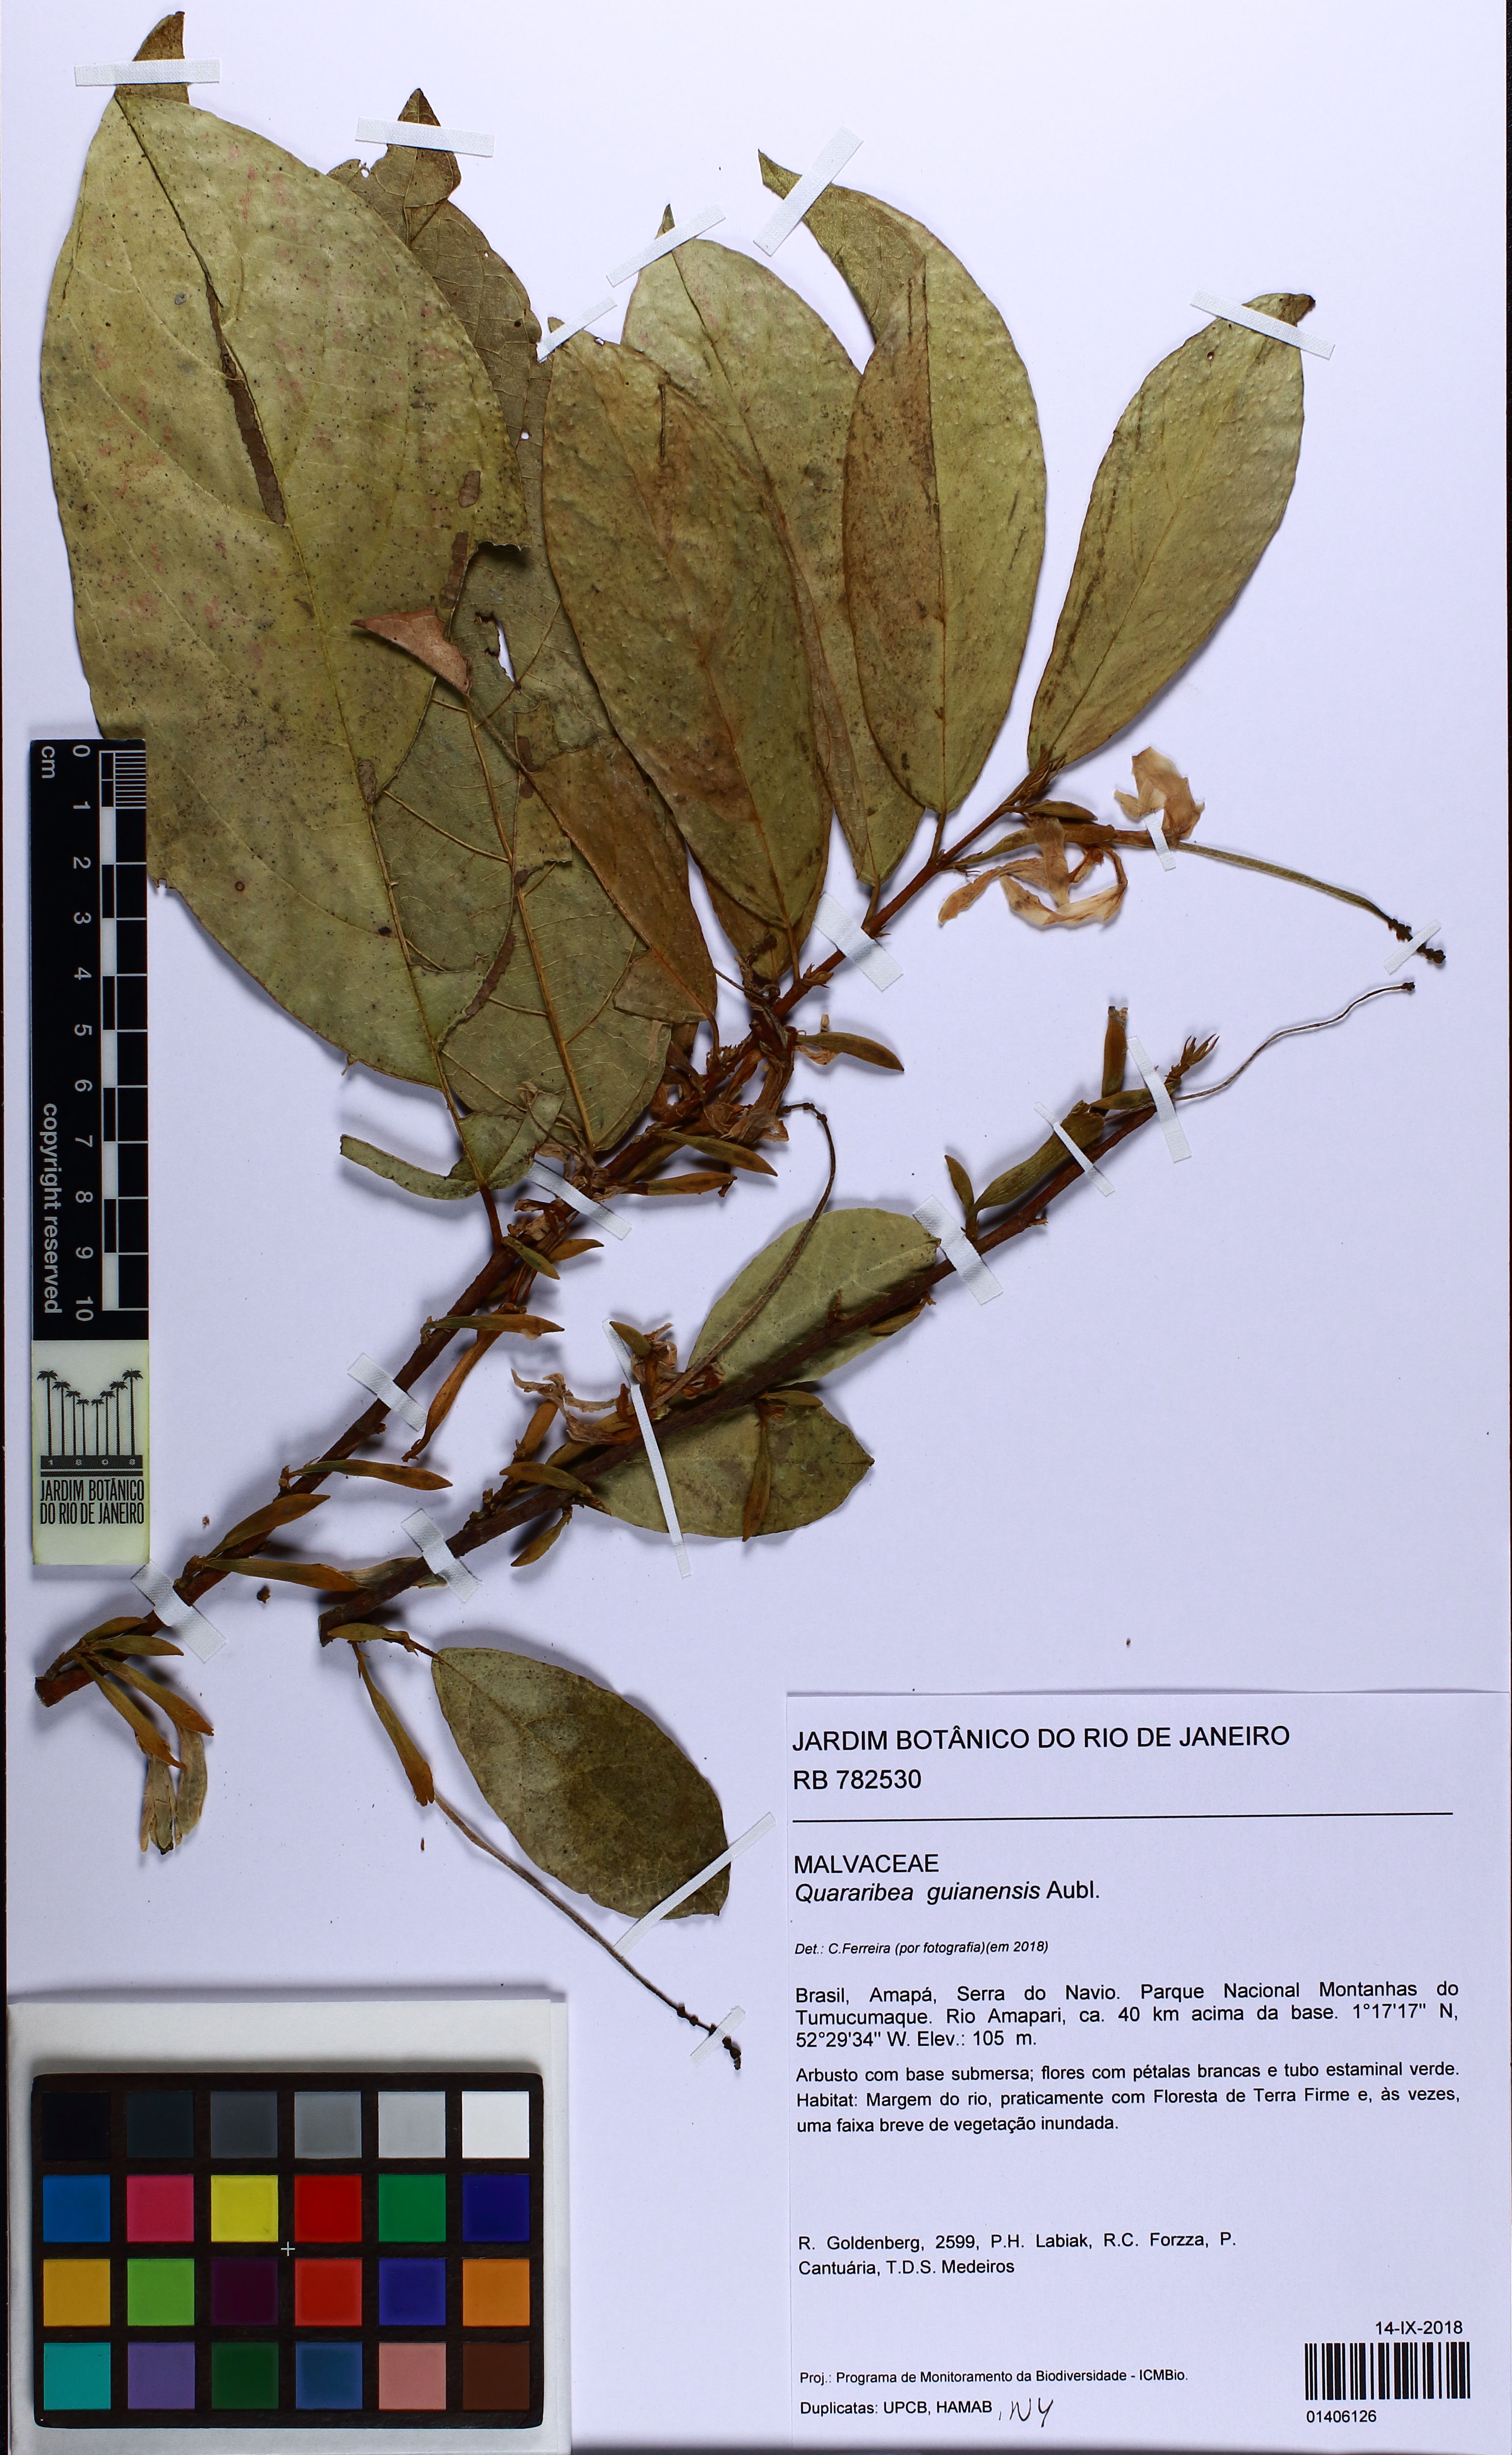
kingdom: Plantae
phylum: Tracheophyta
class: Magnoliopsida
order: Malvales
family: Malvaceae
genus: Quararibea
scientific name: Quararibea guianensis
